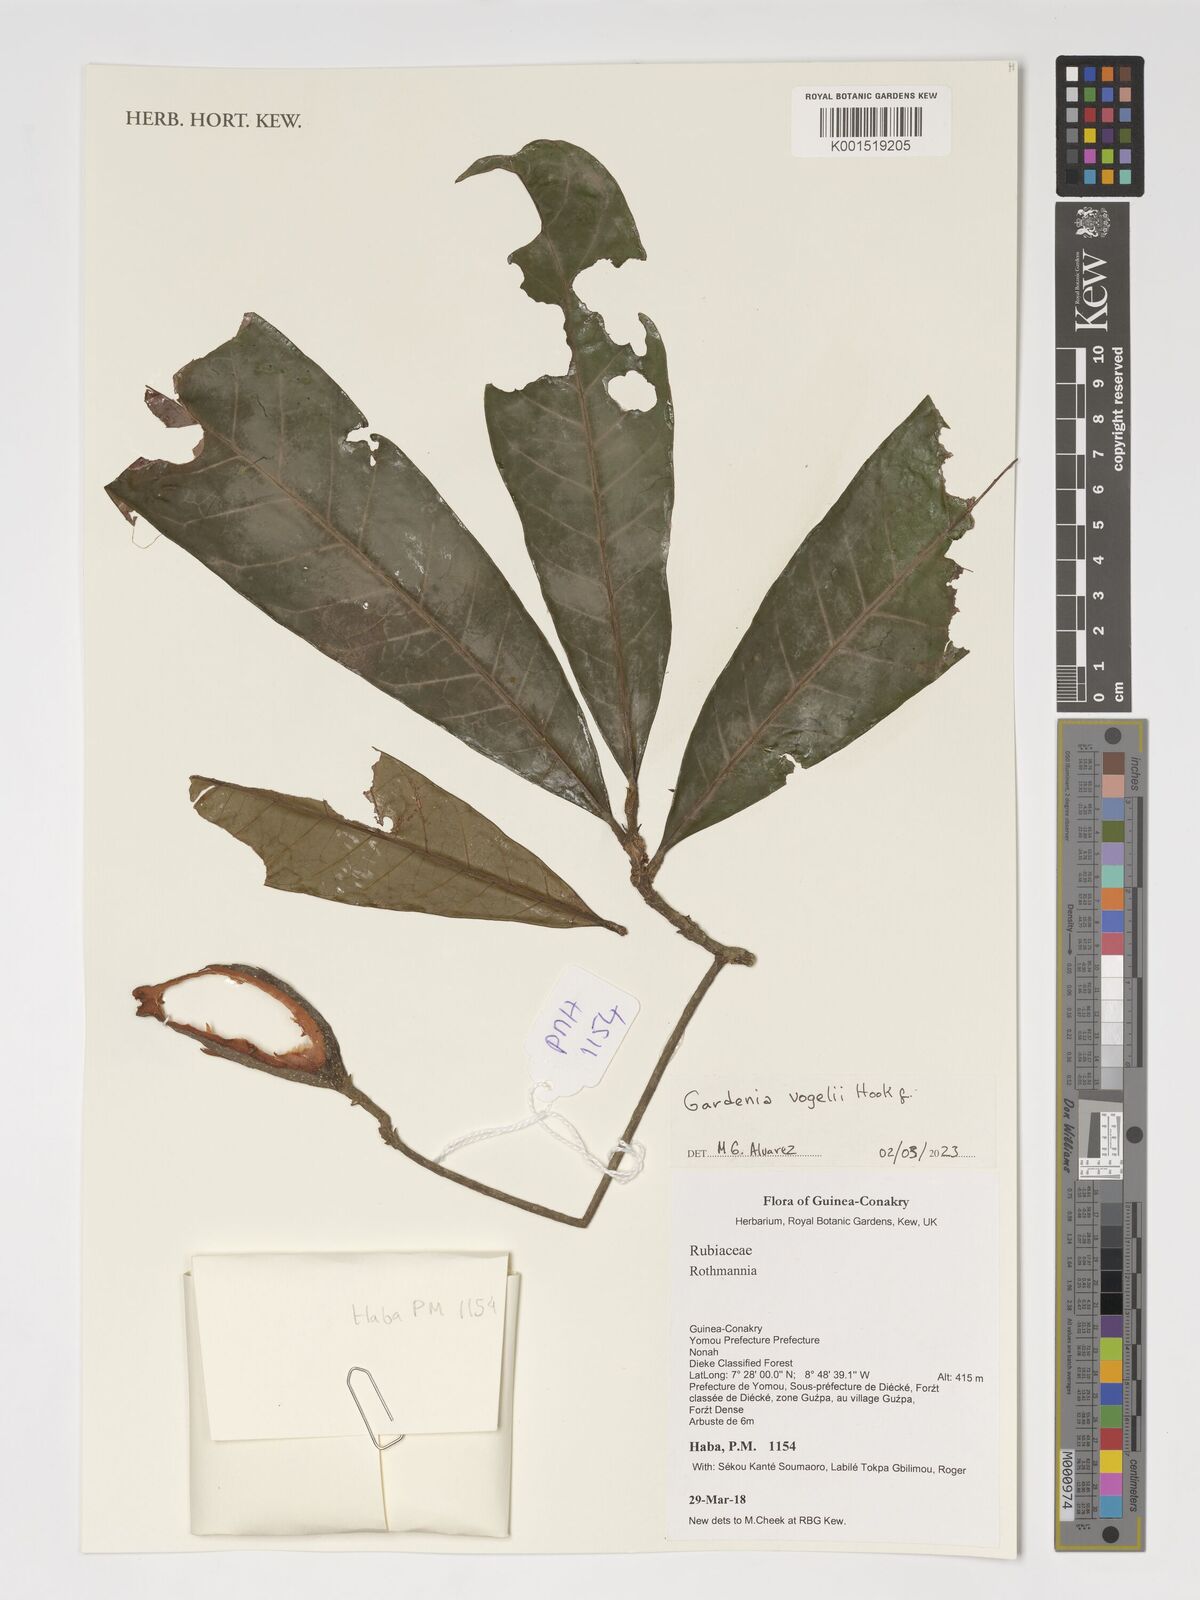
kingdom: Plantae
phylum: Tracheophyta
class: Magnoliopsida
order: Gentianales
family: Rubiaceae
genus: Gardenia
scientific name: Gardenia vogelii
